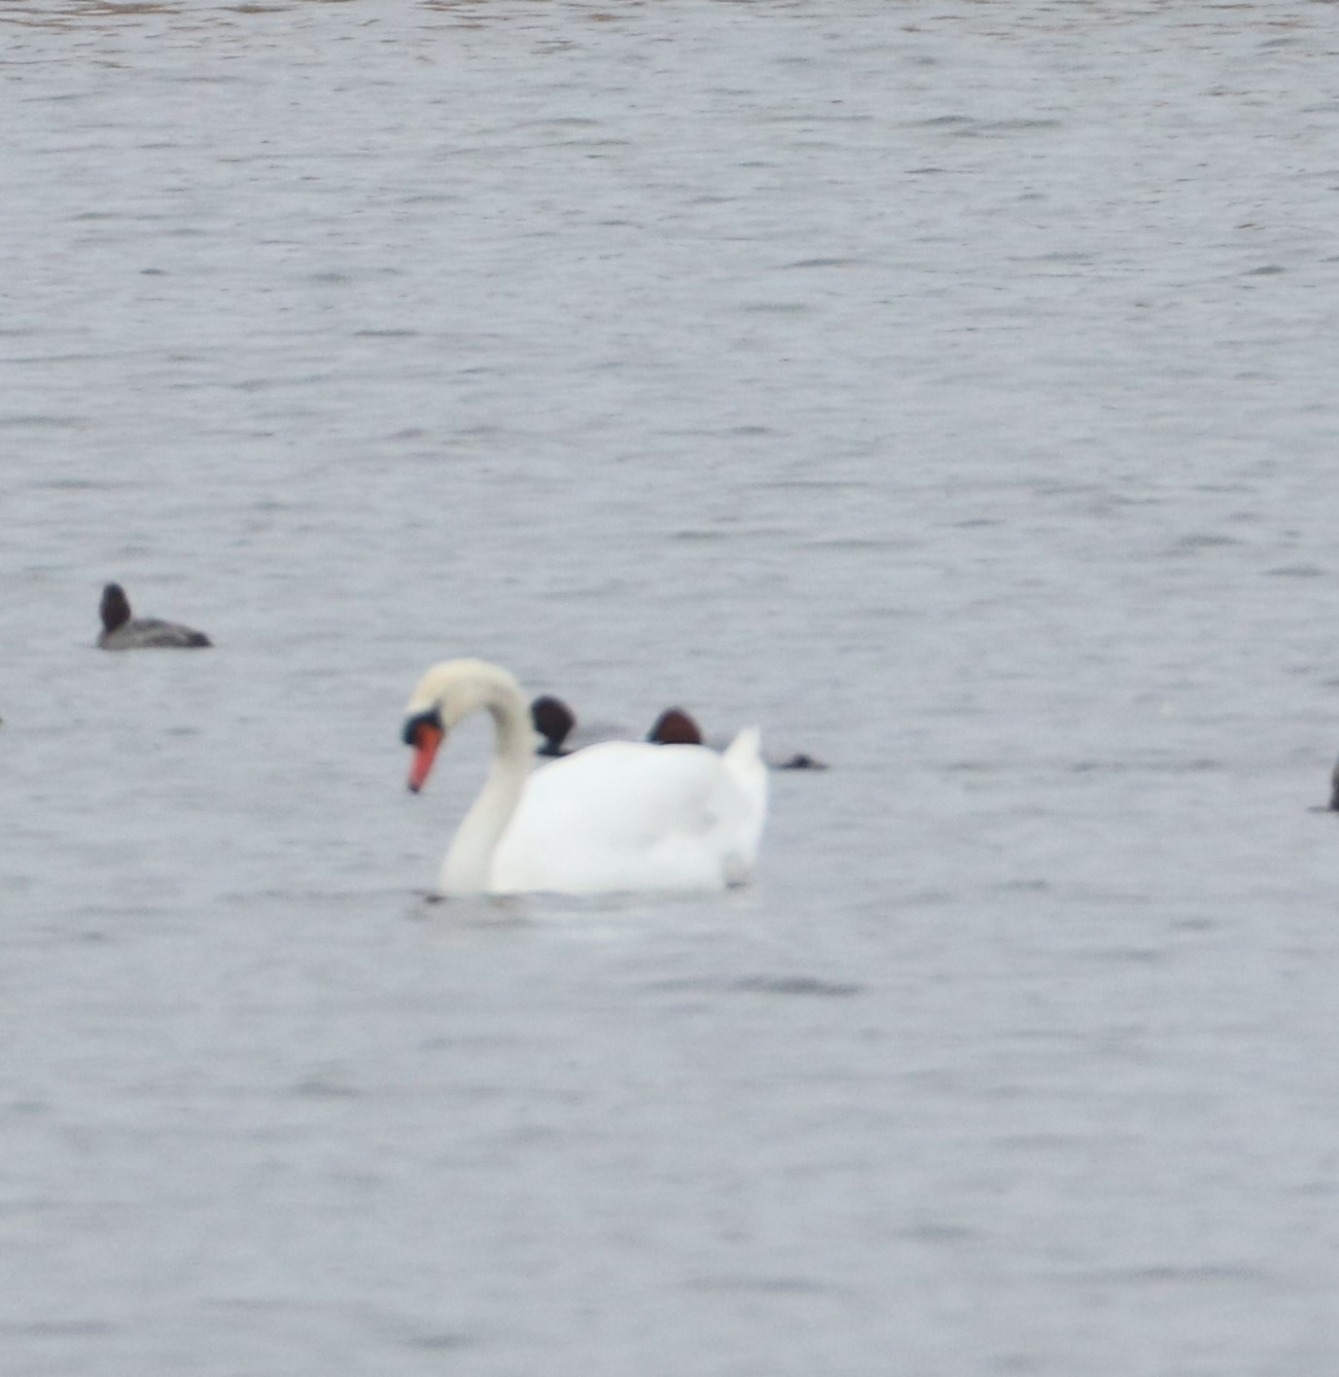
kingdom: Animalia
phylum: Chordata
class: Aves
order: Anseriformes
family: Anatidae
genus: Cygnus
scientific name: Cygnus olor
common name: Knopsvane
